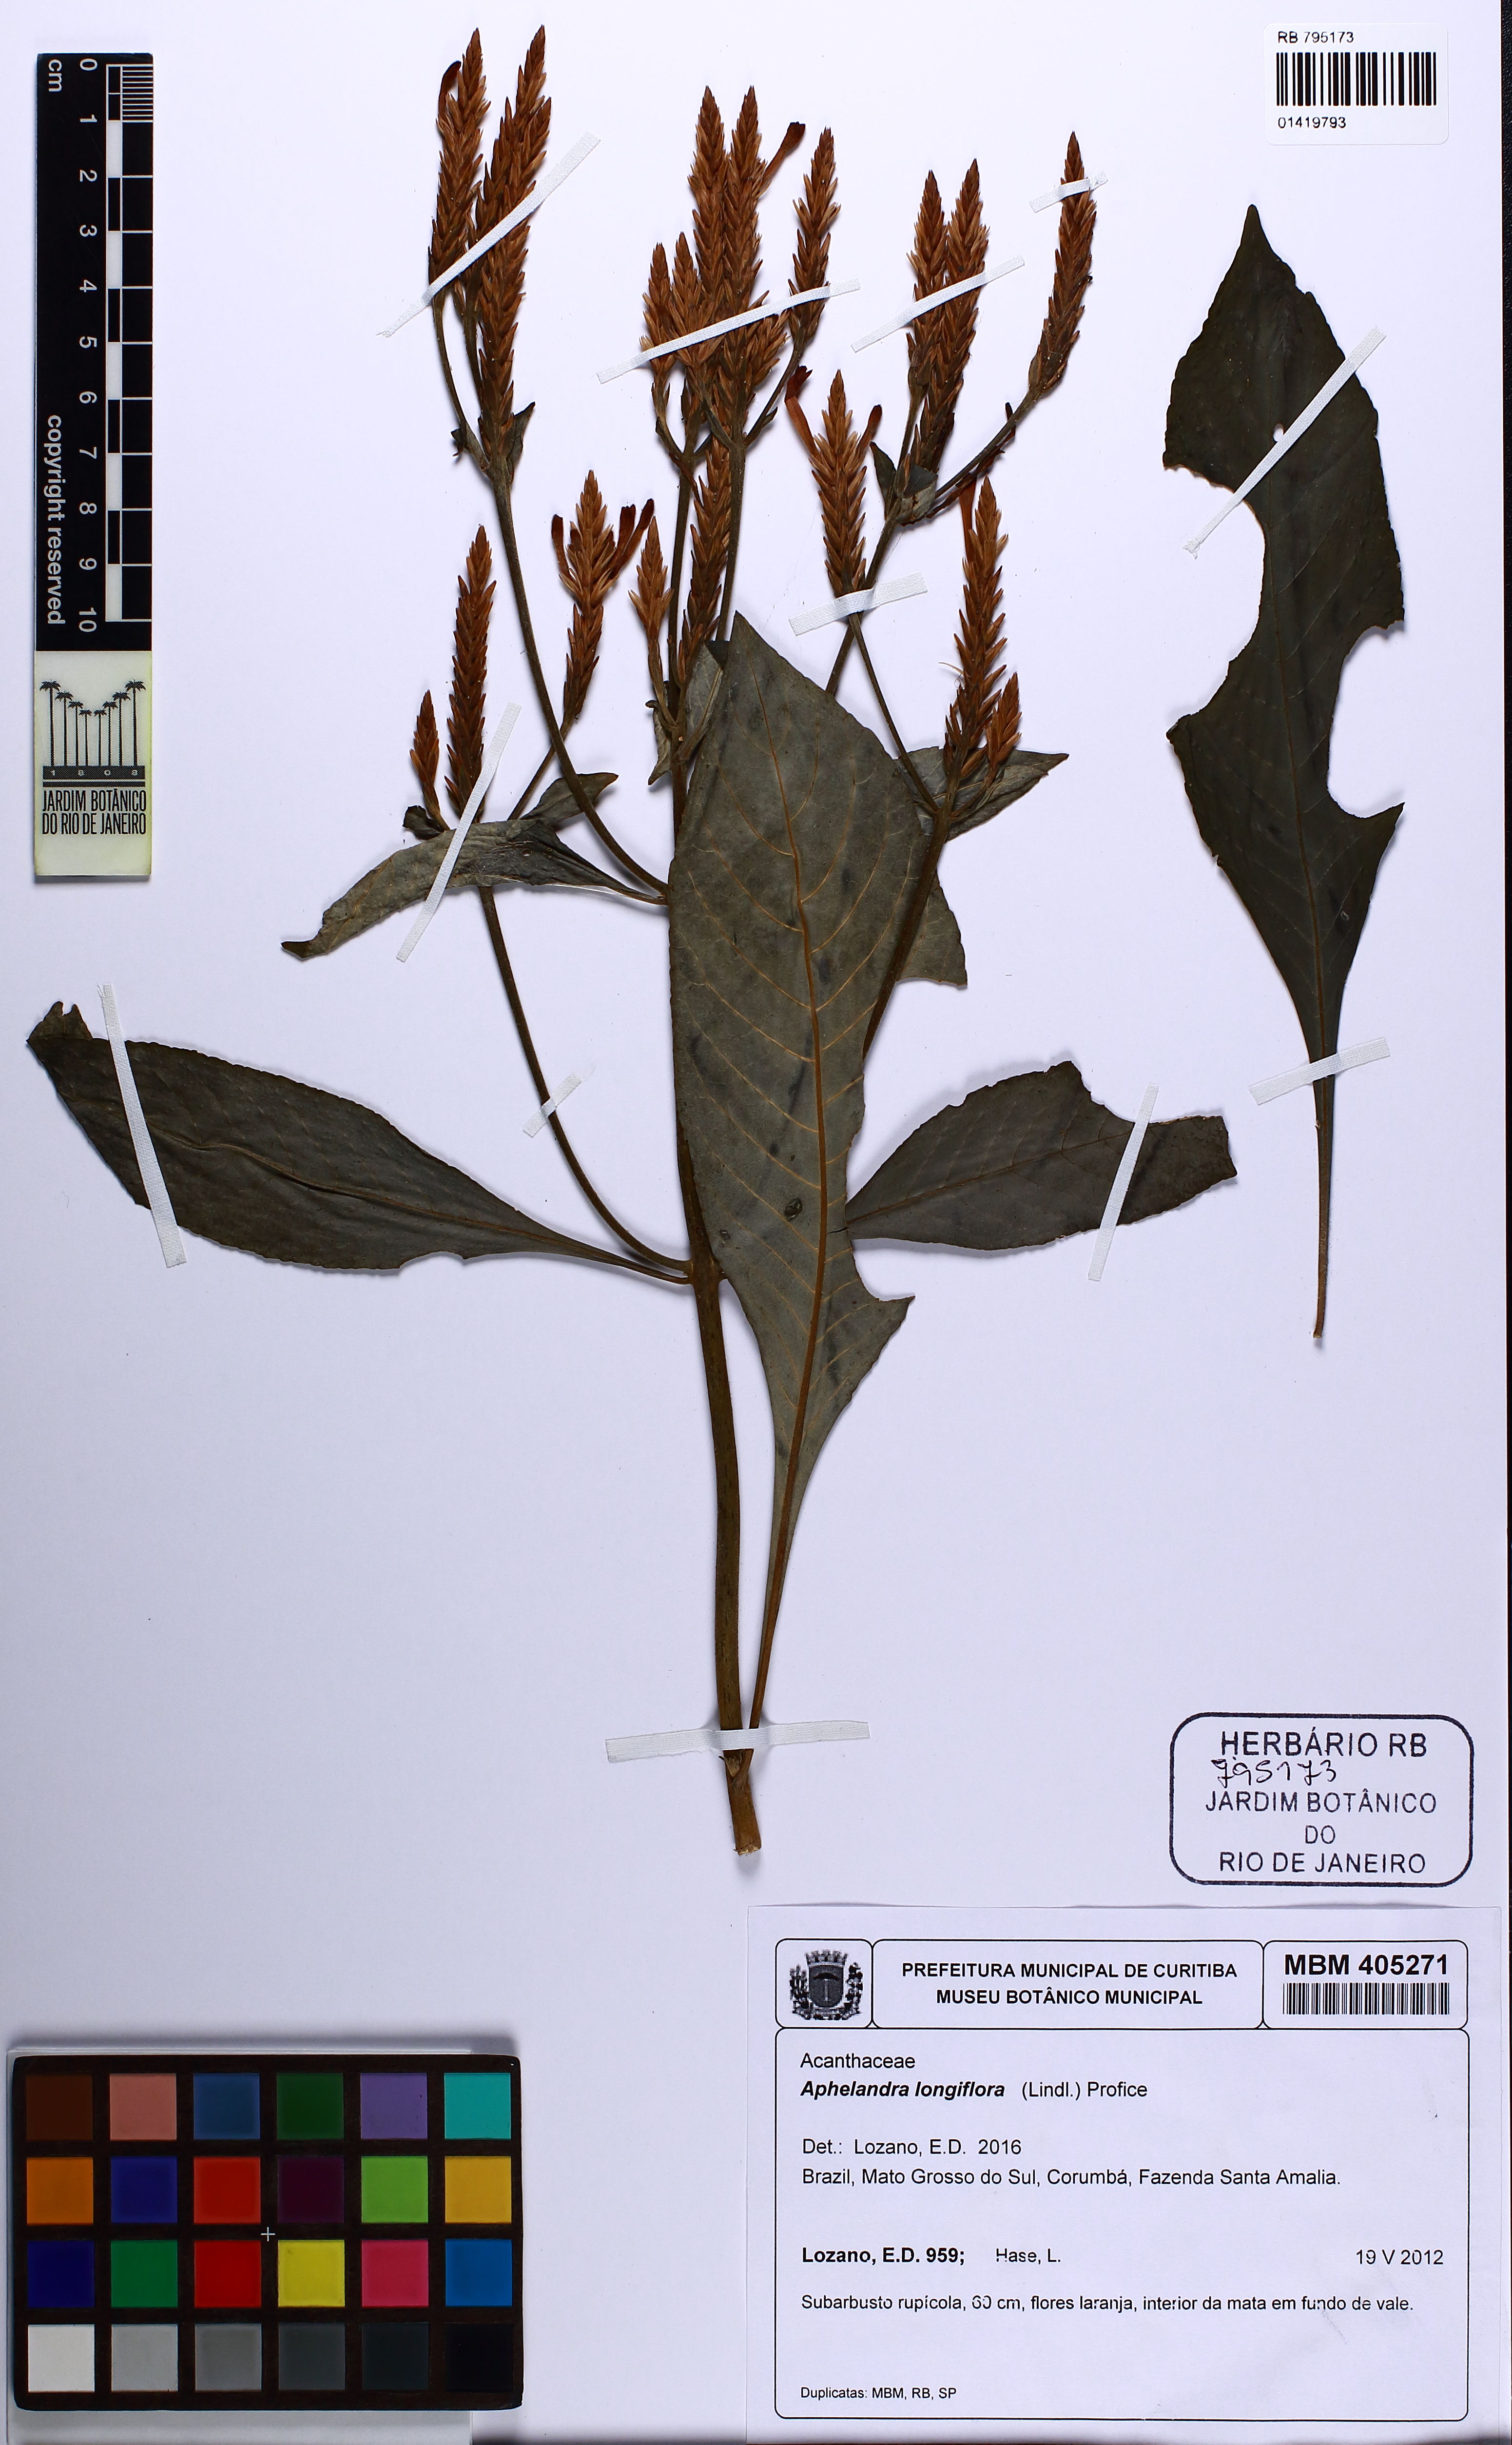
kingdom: Plantae
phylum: Tracheophyta
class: Magnoliopsida
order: Lamiales
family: Acanthaceae
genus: Aphelandra
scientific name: Aphelandra longiflora
